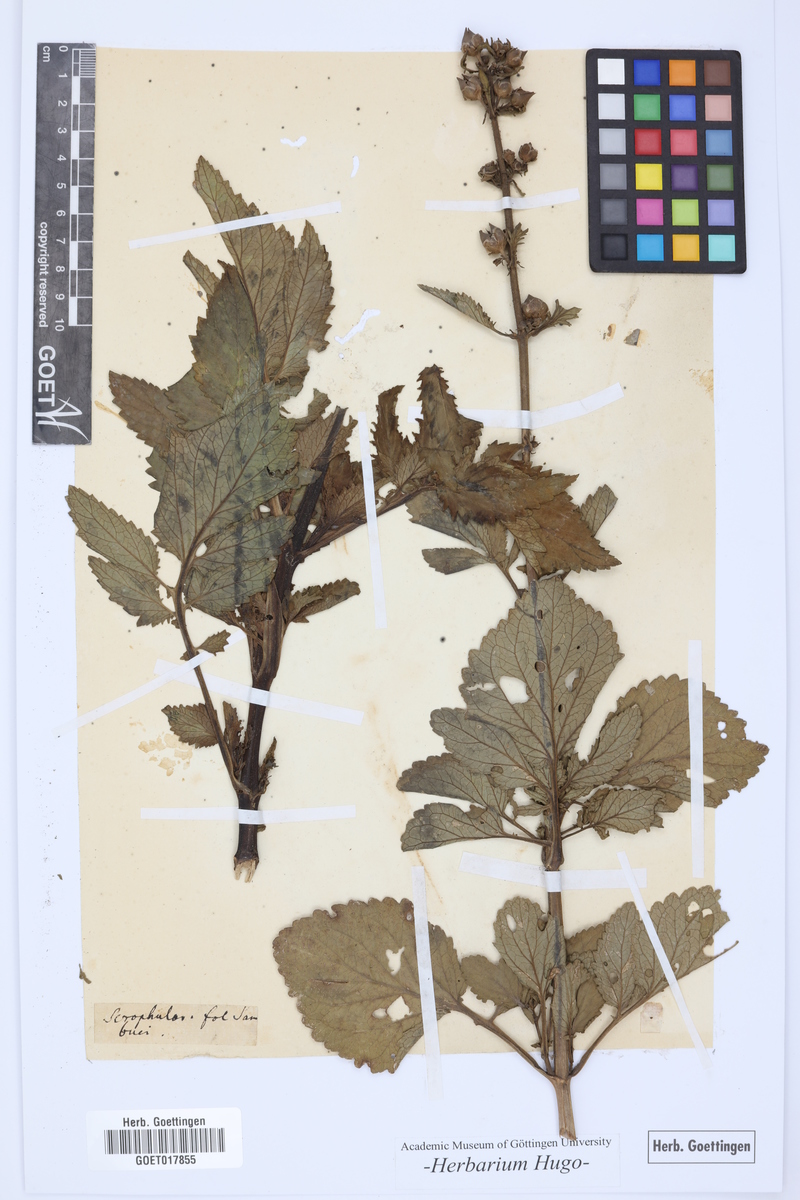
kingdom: Plantae
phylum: Tracheophyta
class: Magnoliopsida
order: Lamiales
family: Scrophulariaceae
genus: Scrophularia
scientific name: Scrophularia sambucifolia
